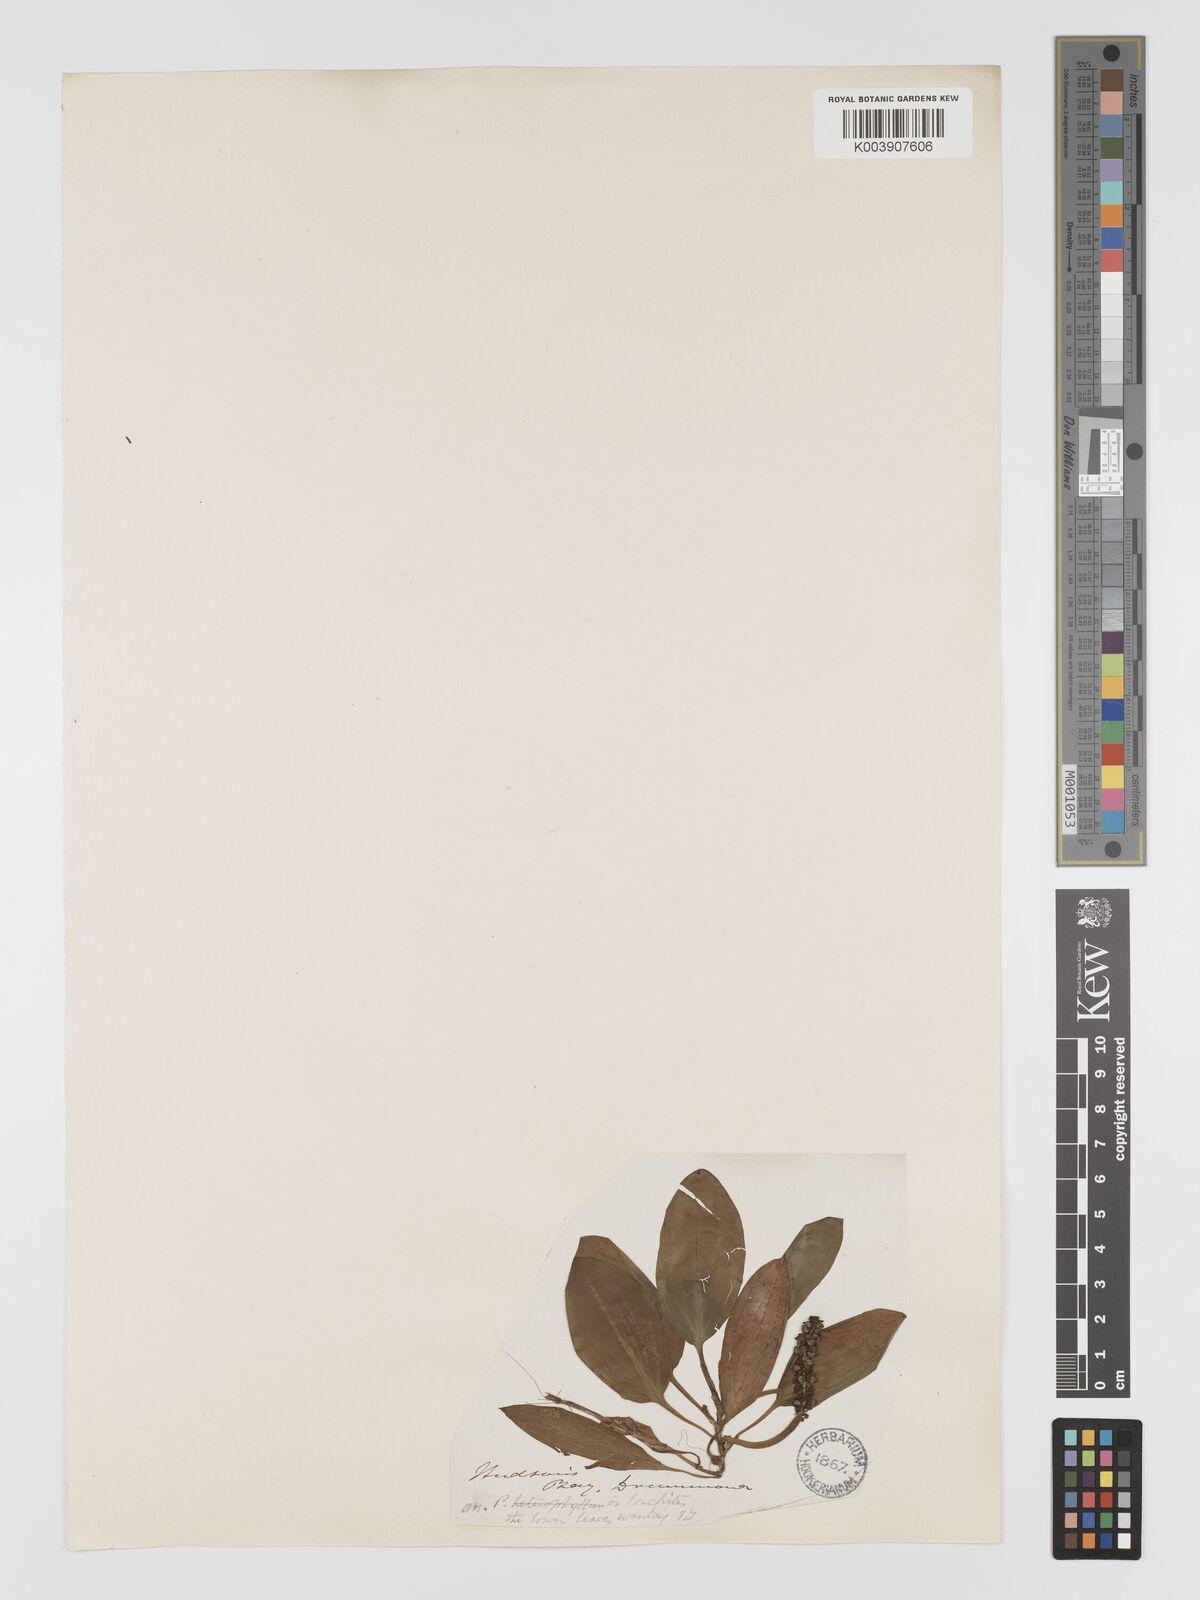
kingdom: Plantae
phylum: Tracheophyta
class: Liliopsida
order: Alismatales
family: Potamogetonaceae
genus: Potamogeton
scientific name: Potamogeton nodosus
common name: Loddon pondweed
